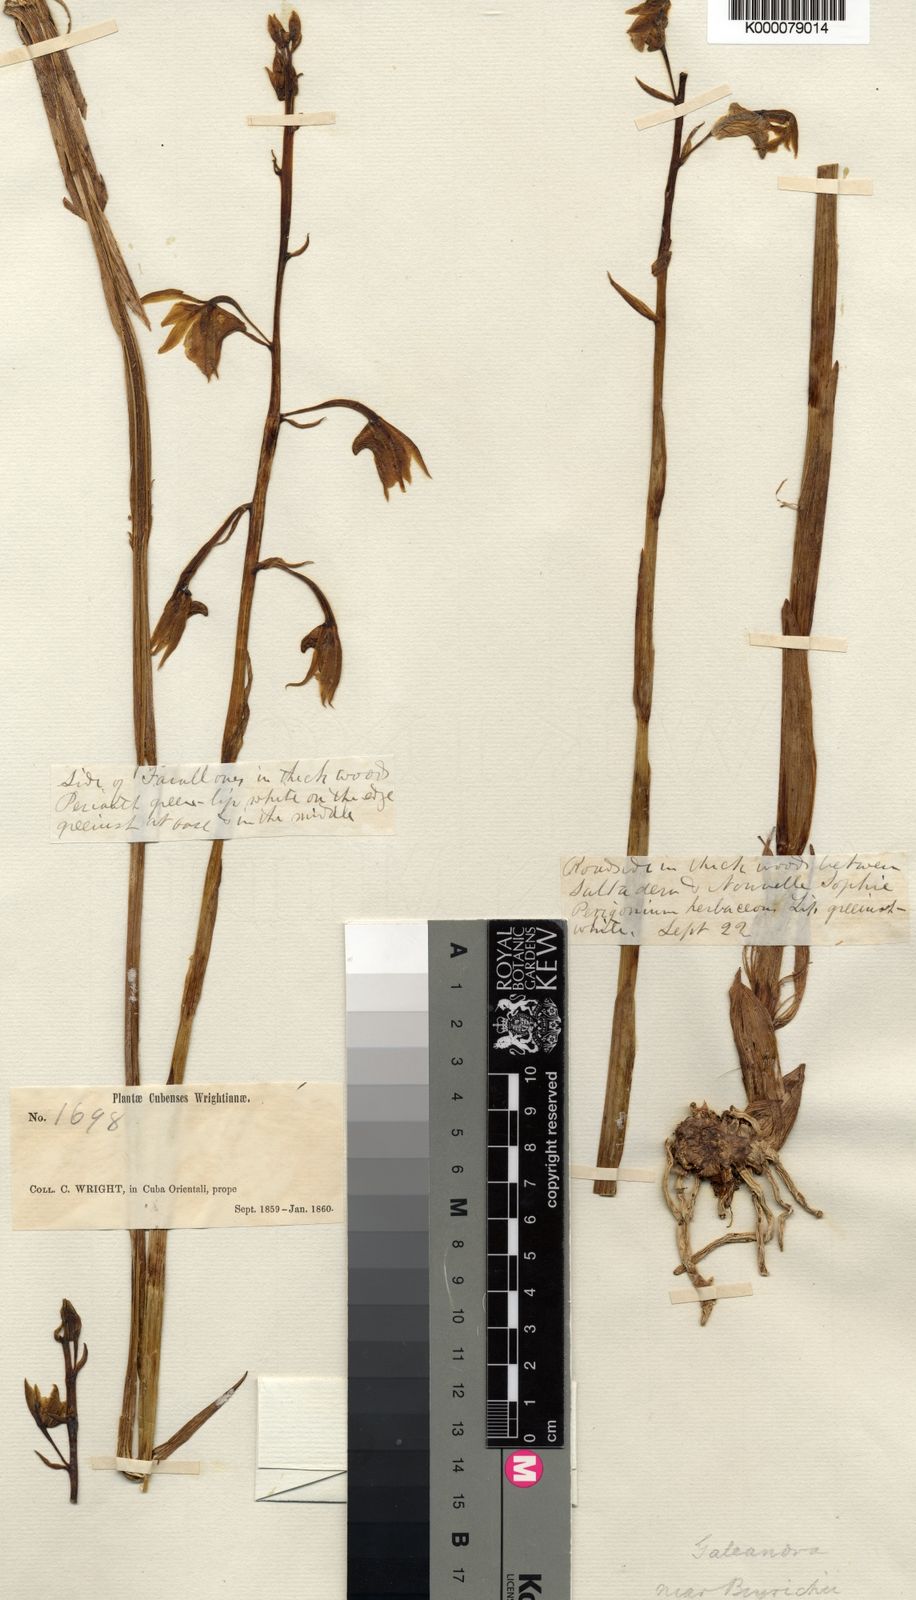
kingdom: Plantae
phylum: Tracheophyta
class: Liliopsida
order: Asparagales
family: Orchidaceae
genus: Galeandra
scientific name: Galeandra beyrichii
